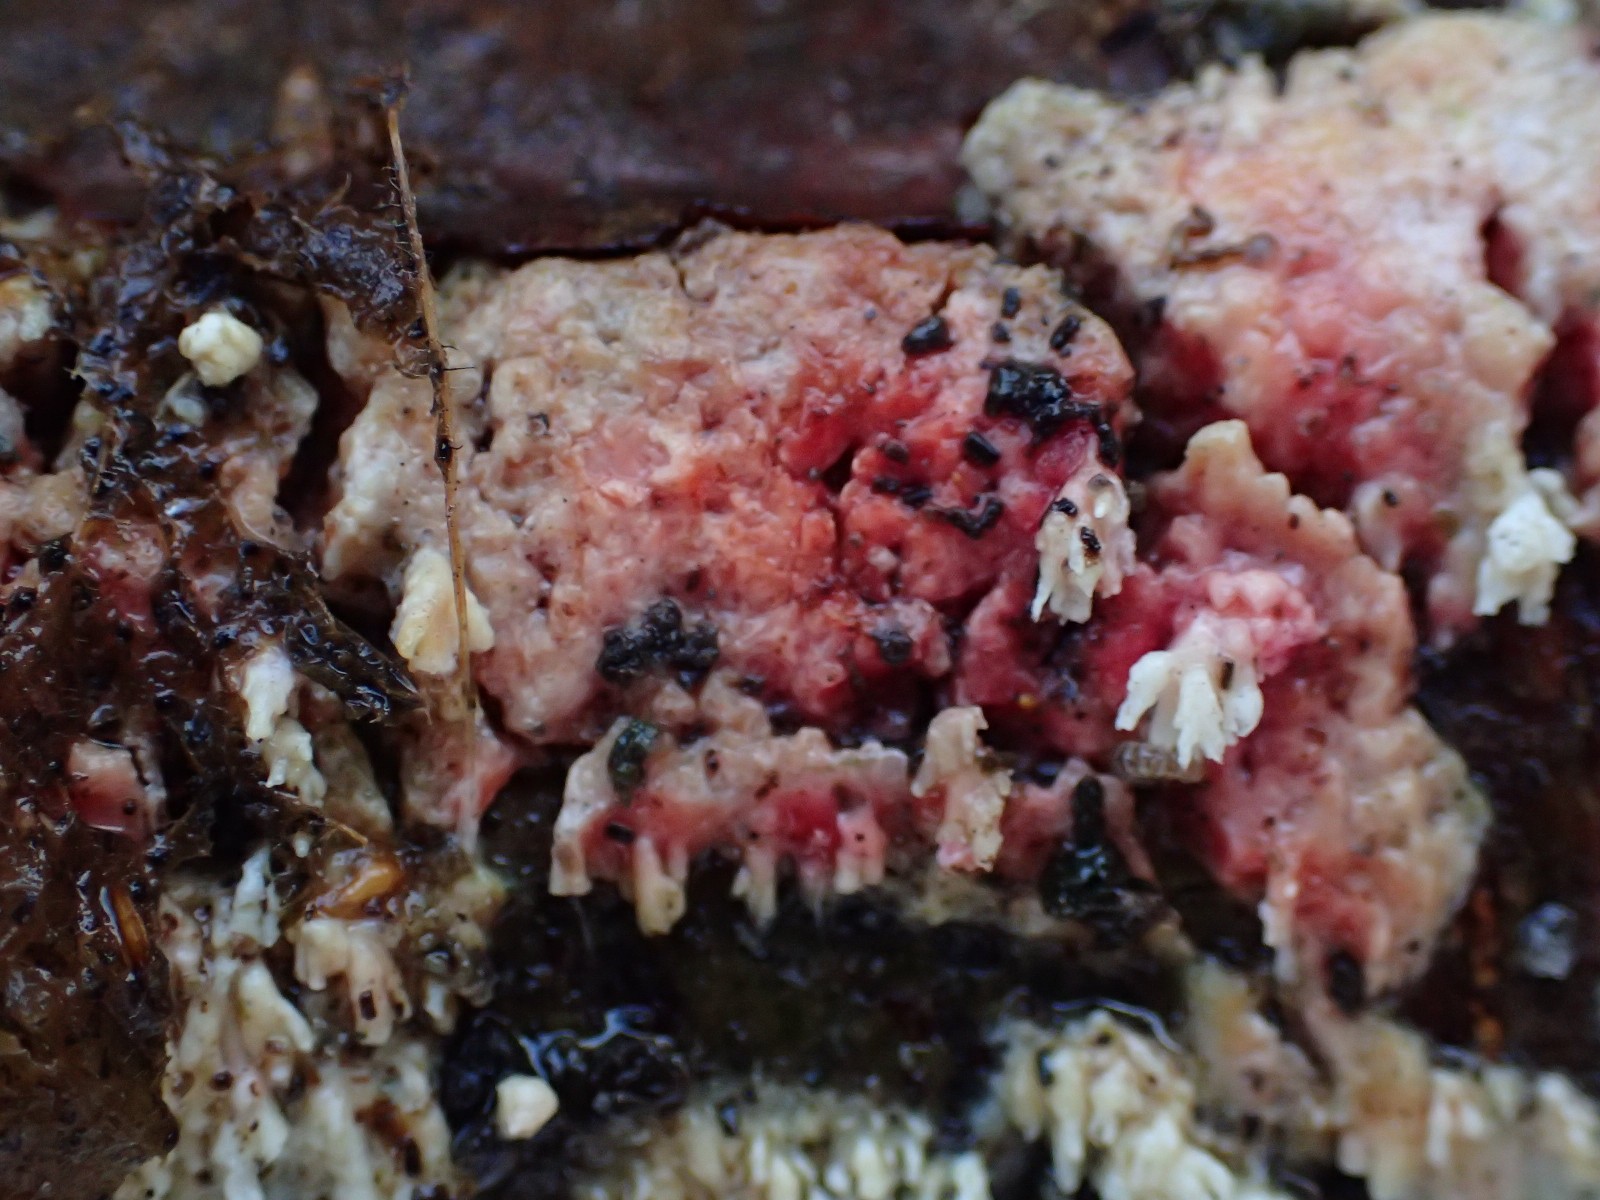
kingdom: Fungi
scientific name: Fungi
